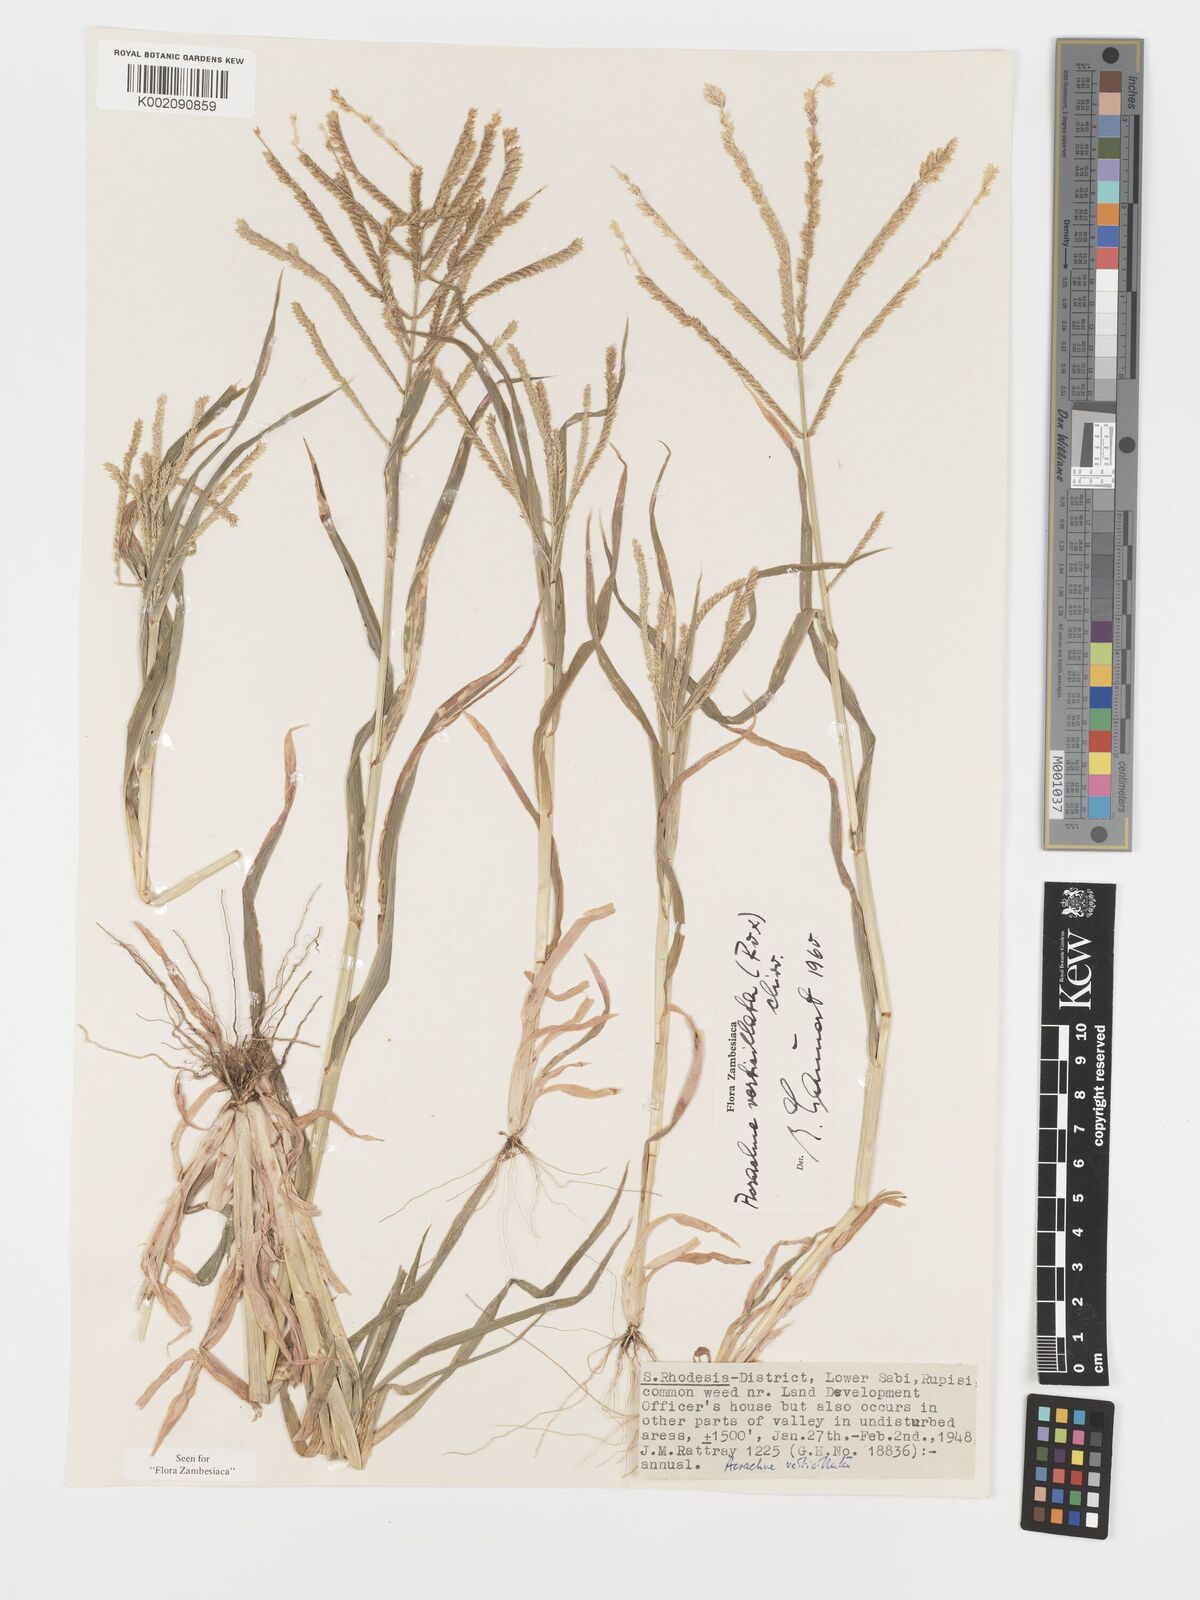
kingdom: Plantae
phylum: Tracheophyta
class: Liliopsida
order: Poales
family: Poaceae
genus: Acrachne
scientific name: Acrachne racemosa
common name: Goosegrass
